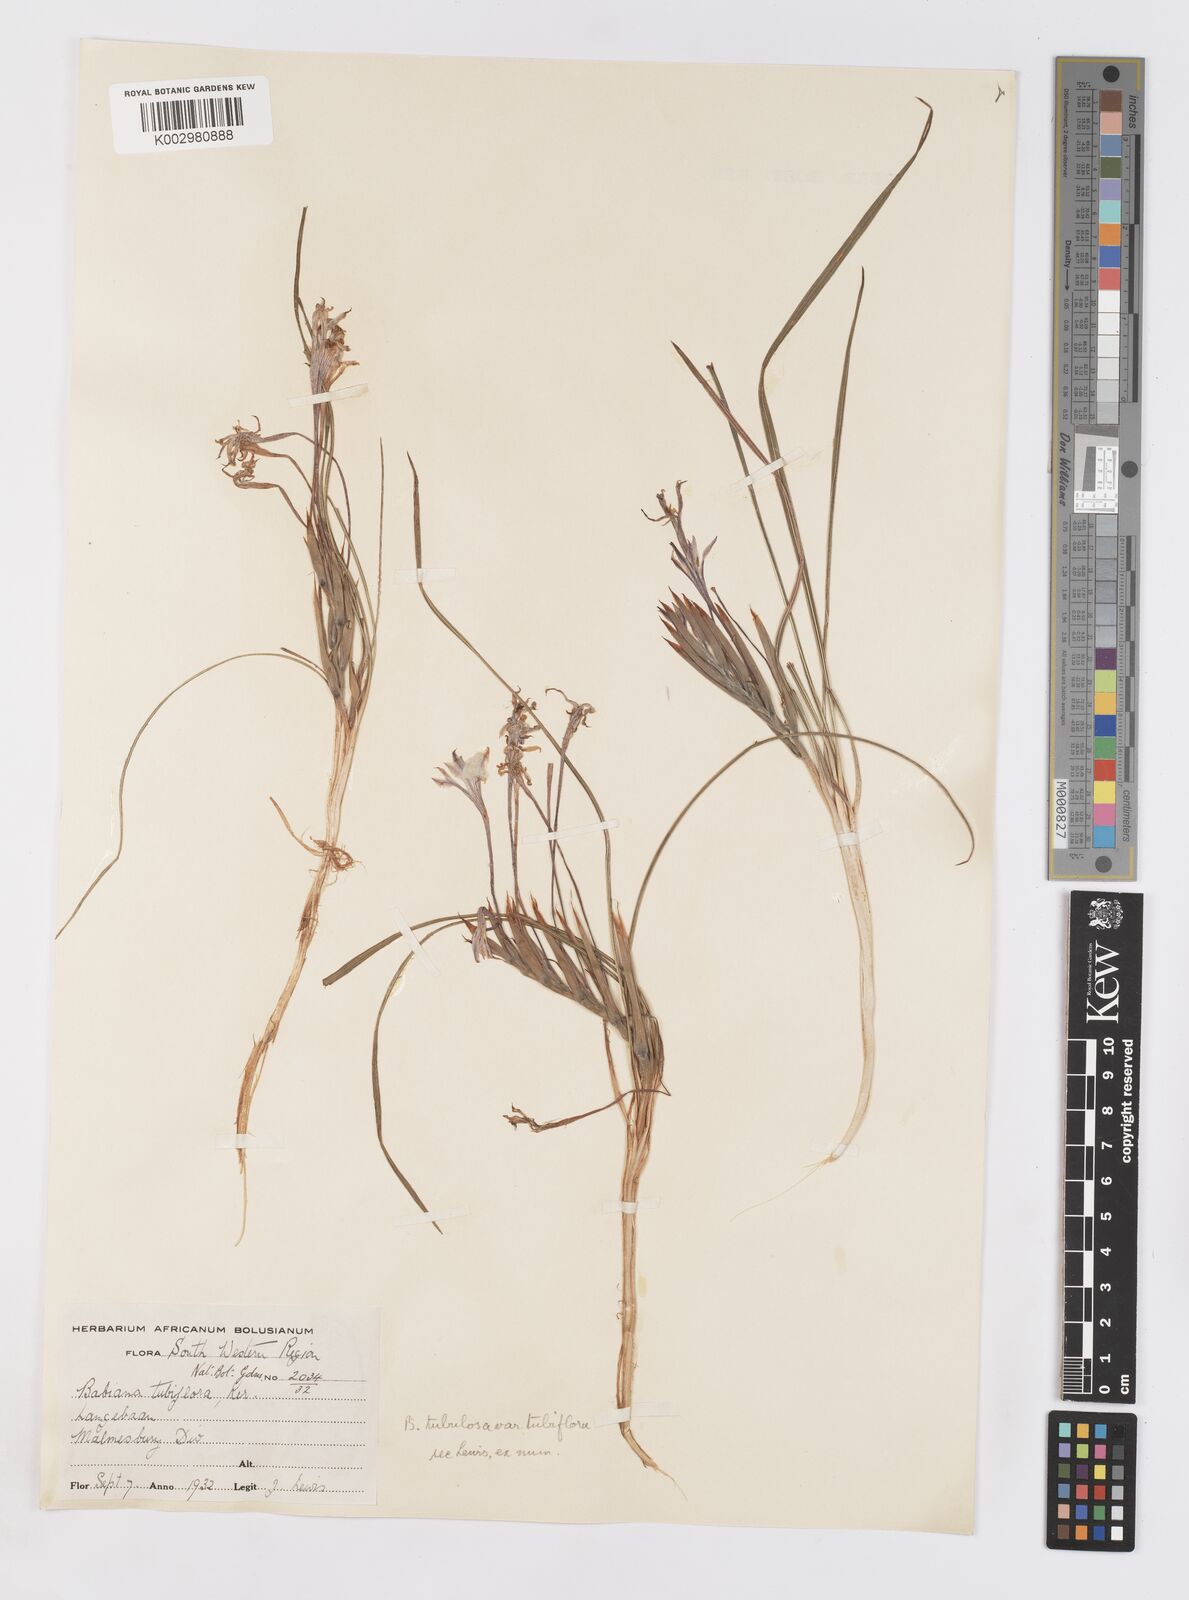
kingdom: Plantae
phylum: Tracheophyta
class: Liliopsida
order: Asparagales
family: Iridaceae
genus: Babiana
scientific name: Babiana tubiflora
